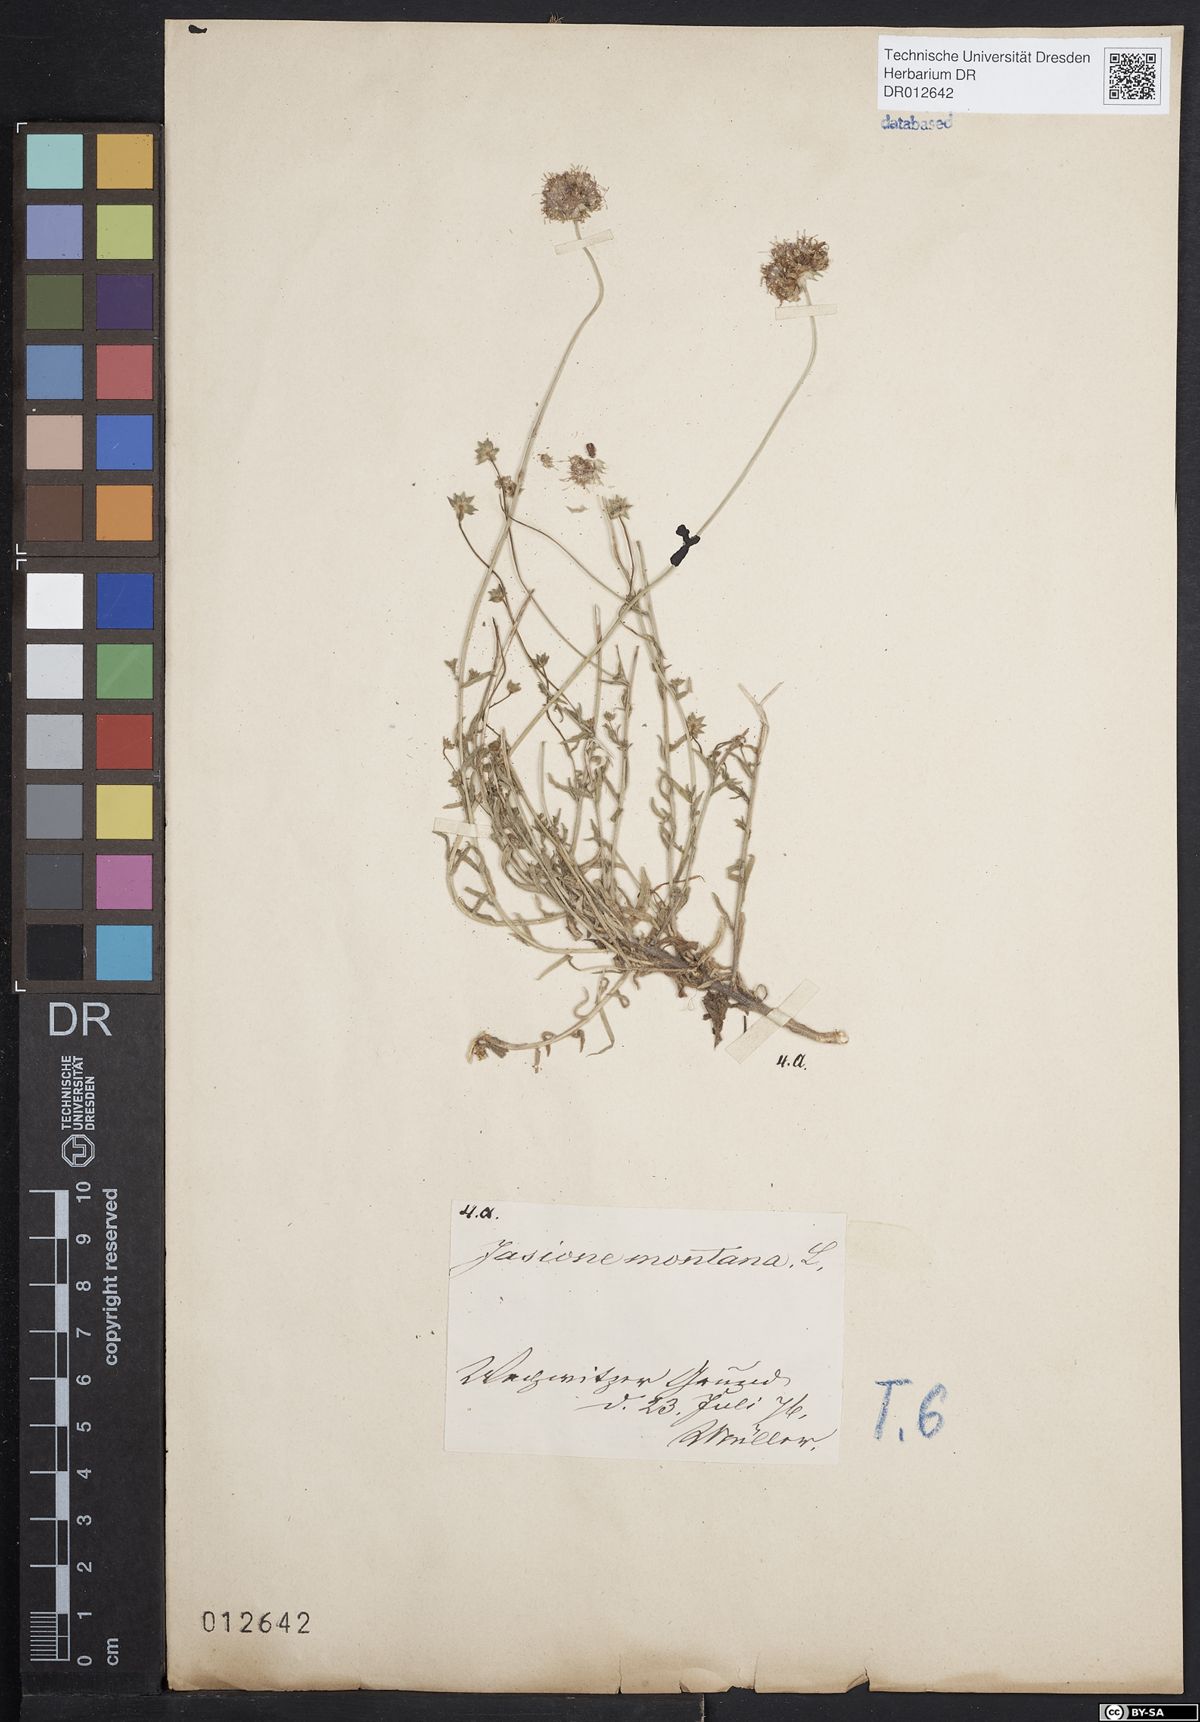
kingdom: Plantae
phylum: Tracheophyta
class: Magnoliopsida
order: Asterales
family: Campanulaceae
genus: Jasione
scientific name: Jasione montana
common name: Sheep's-bit
